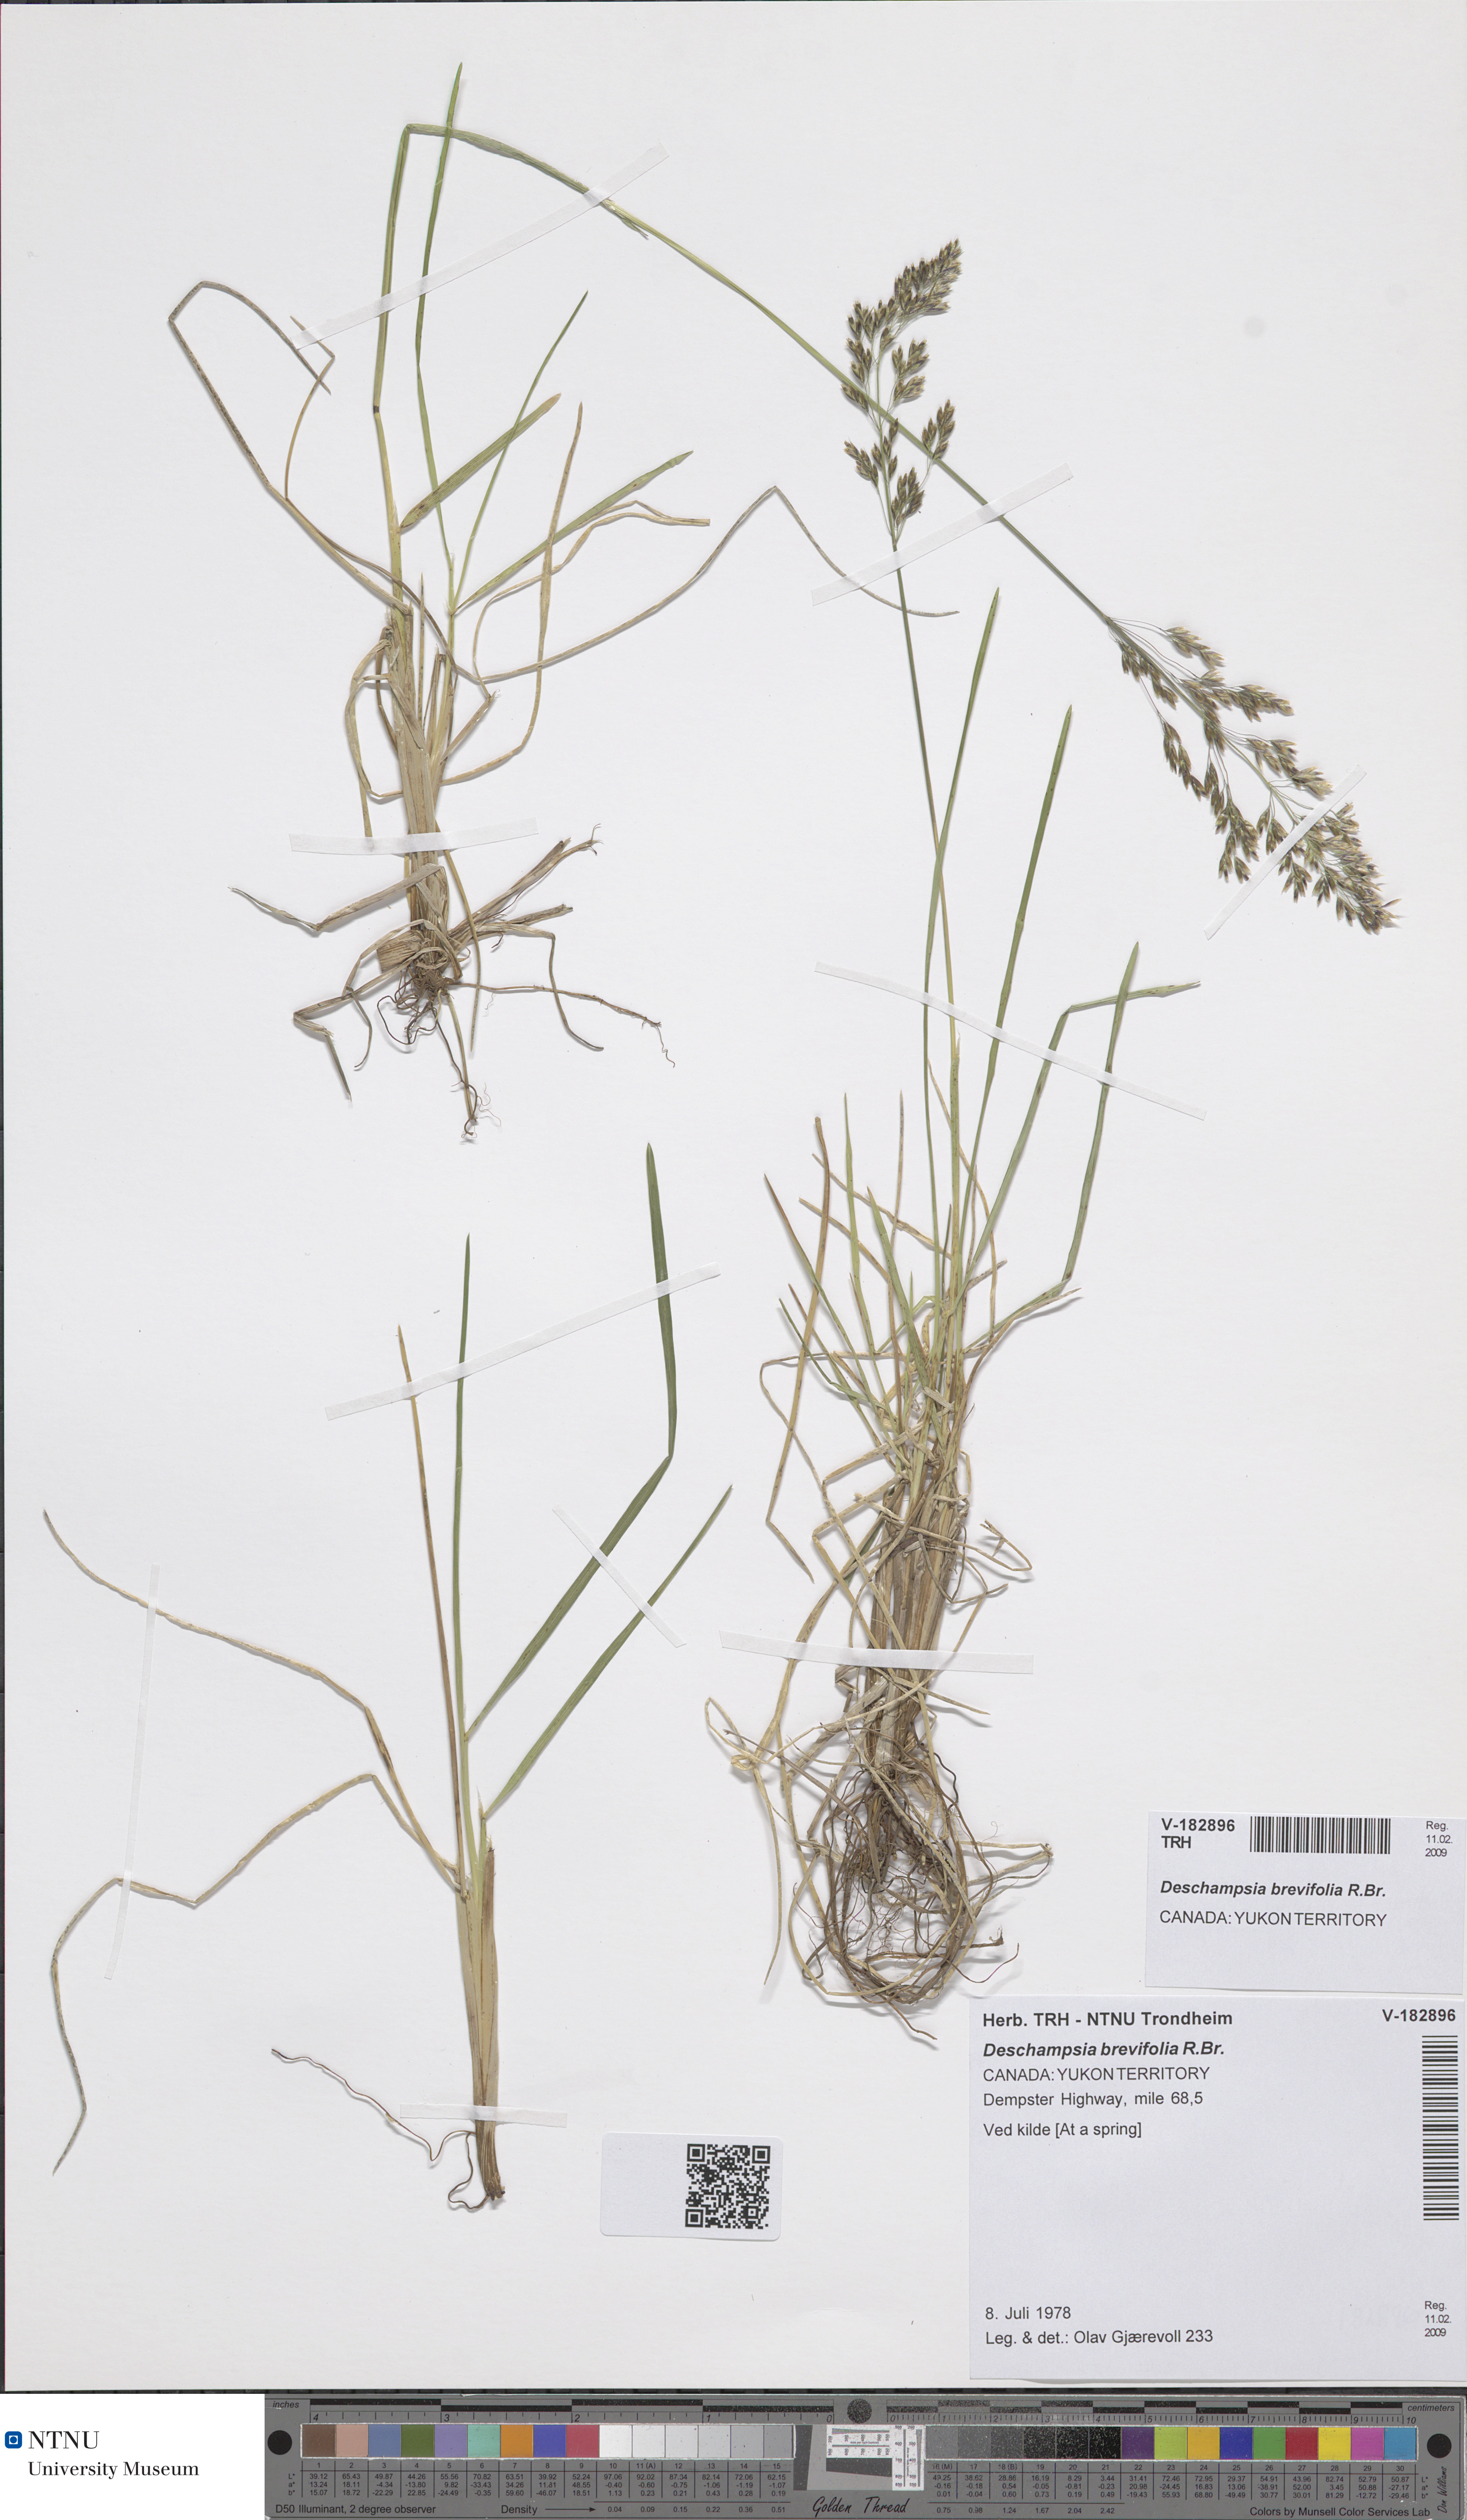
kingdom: Plantae
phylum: Tracheophyta
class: Liliopsida
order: Poales
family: Poaceae
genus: Deschampsia
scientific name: Deschampsia cespitosa
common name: Tufted hair-grass
